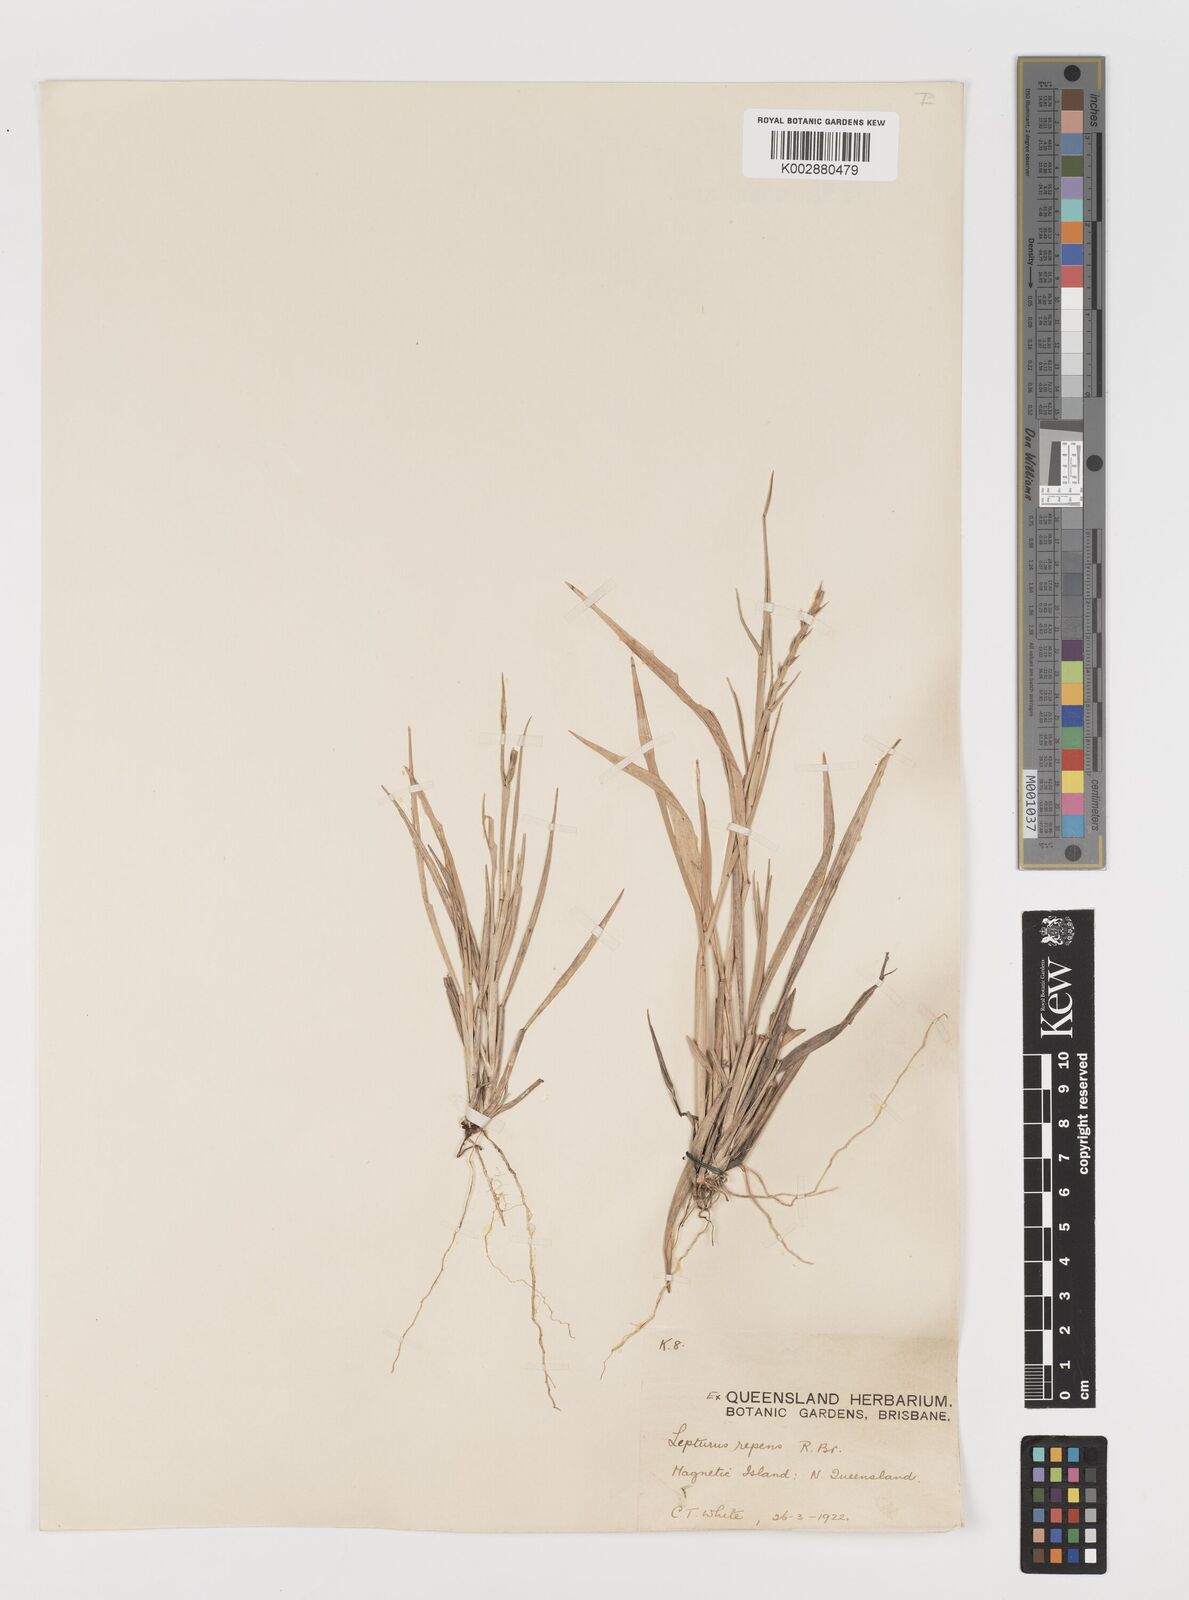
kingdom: Plantae
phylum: Tracheophyta
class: Liliopsida
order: Poales
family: Poaceae
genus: Lepturus
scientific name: Lepturus repens
